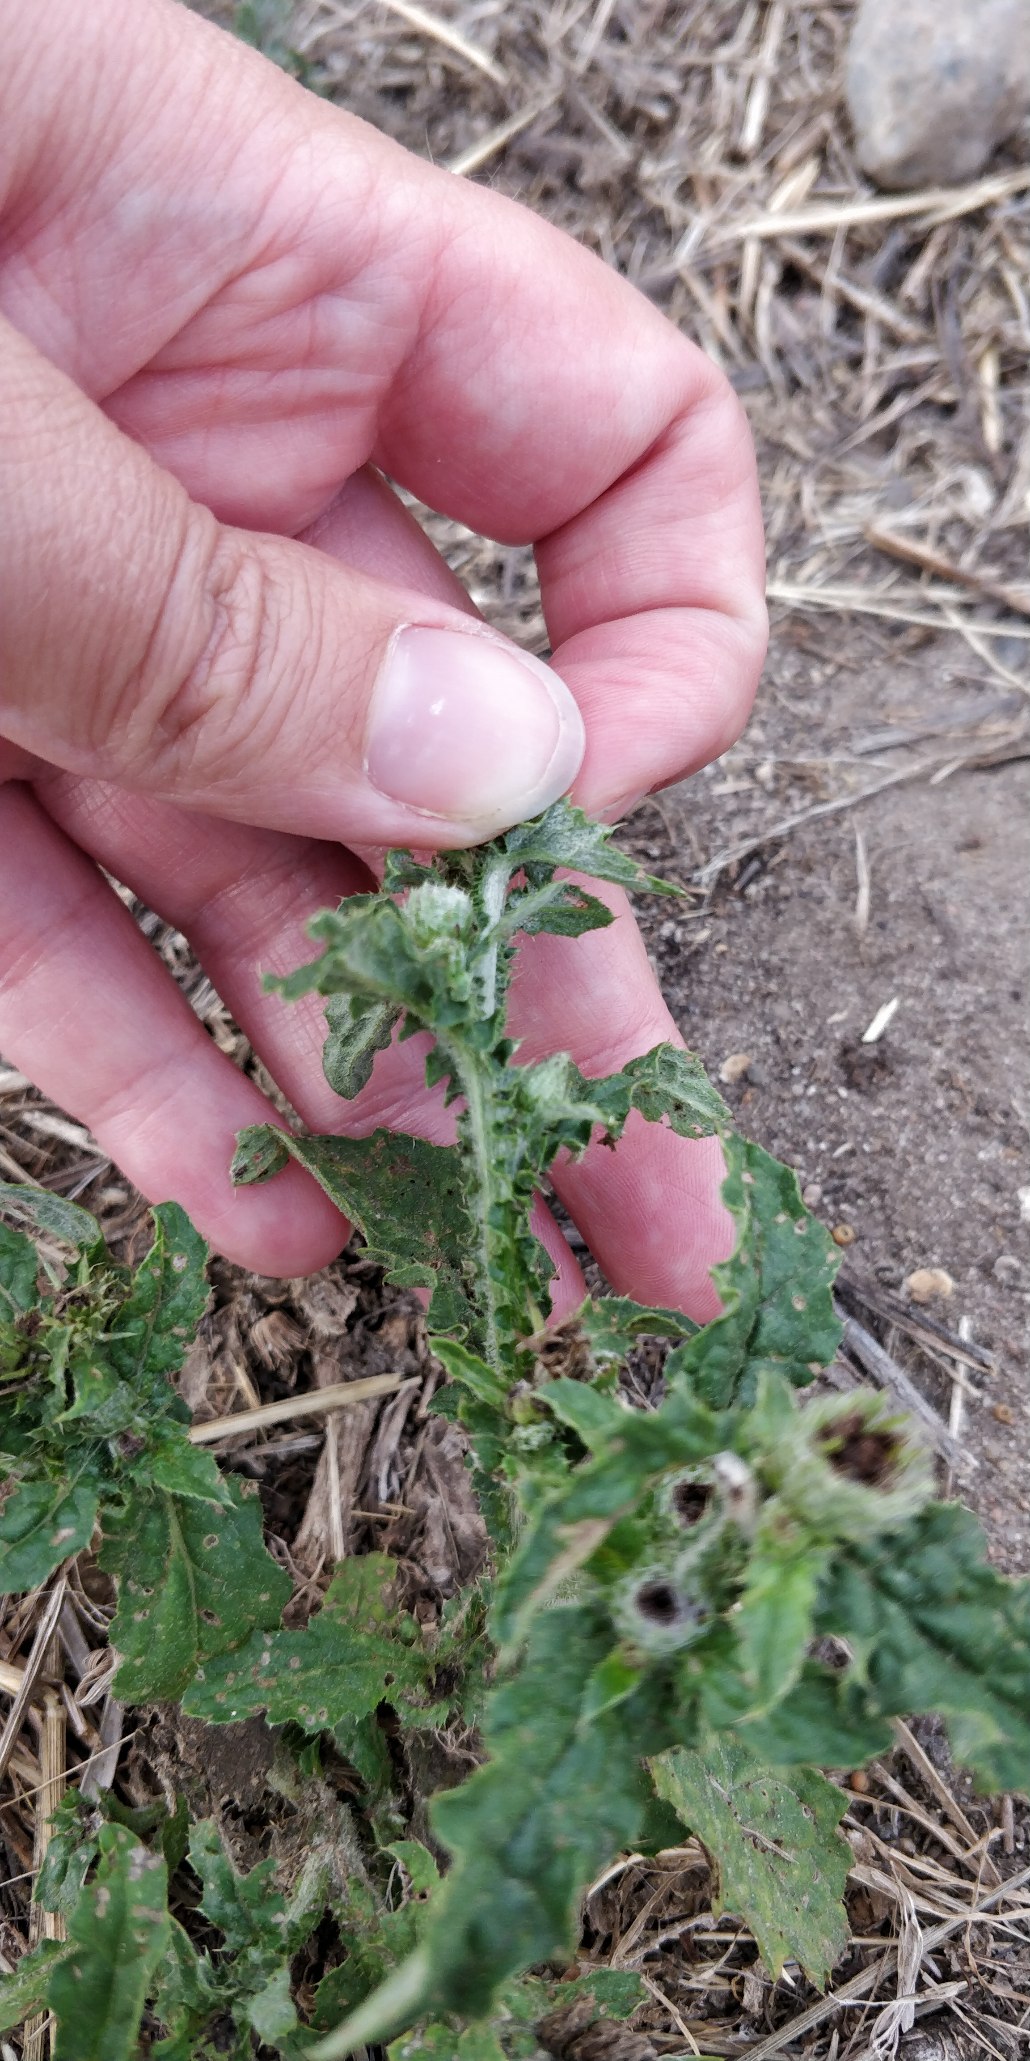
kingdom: Plantae
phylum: Tracheophyta
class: Magnoliopsida
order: Asterales
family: Asteraceae
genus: Carduus
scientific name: Carduus crispus
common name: Kruset tidsel
